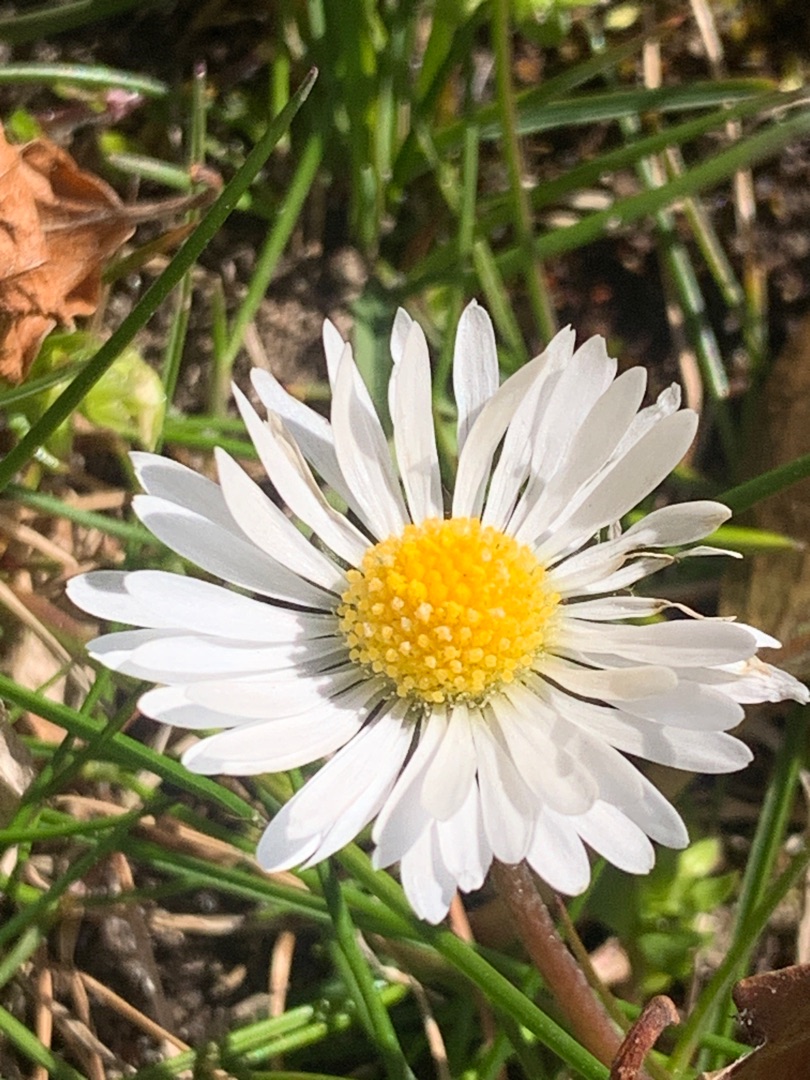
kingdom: Plantae
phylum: Tracheophyta
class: Magnoliopsida
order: Asterales
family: Asteraceae
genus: Bellis
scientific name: Bellis perennis
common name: Tusindfryd
